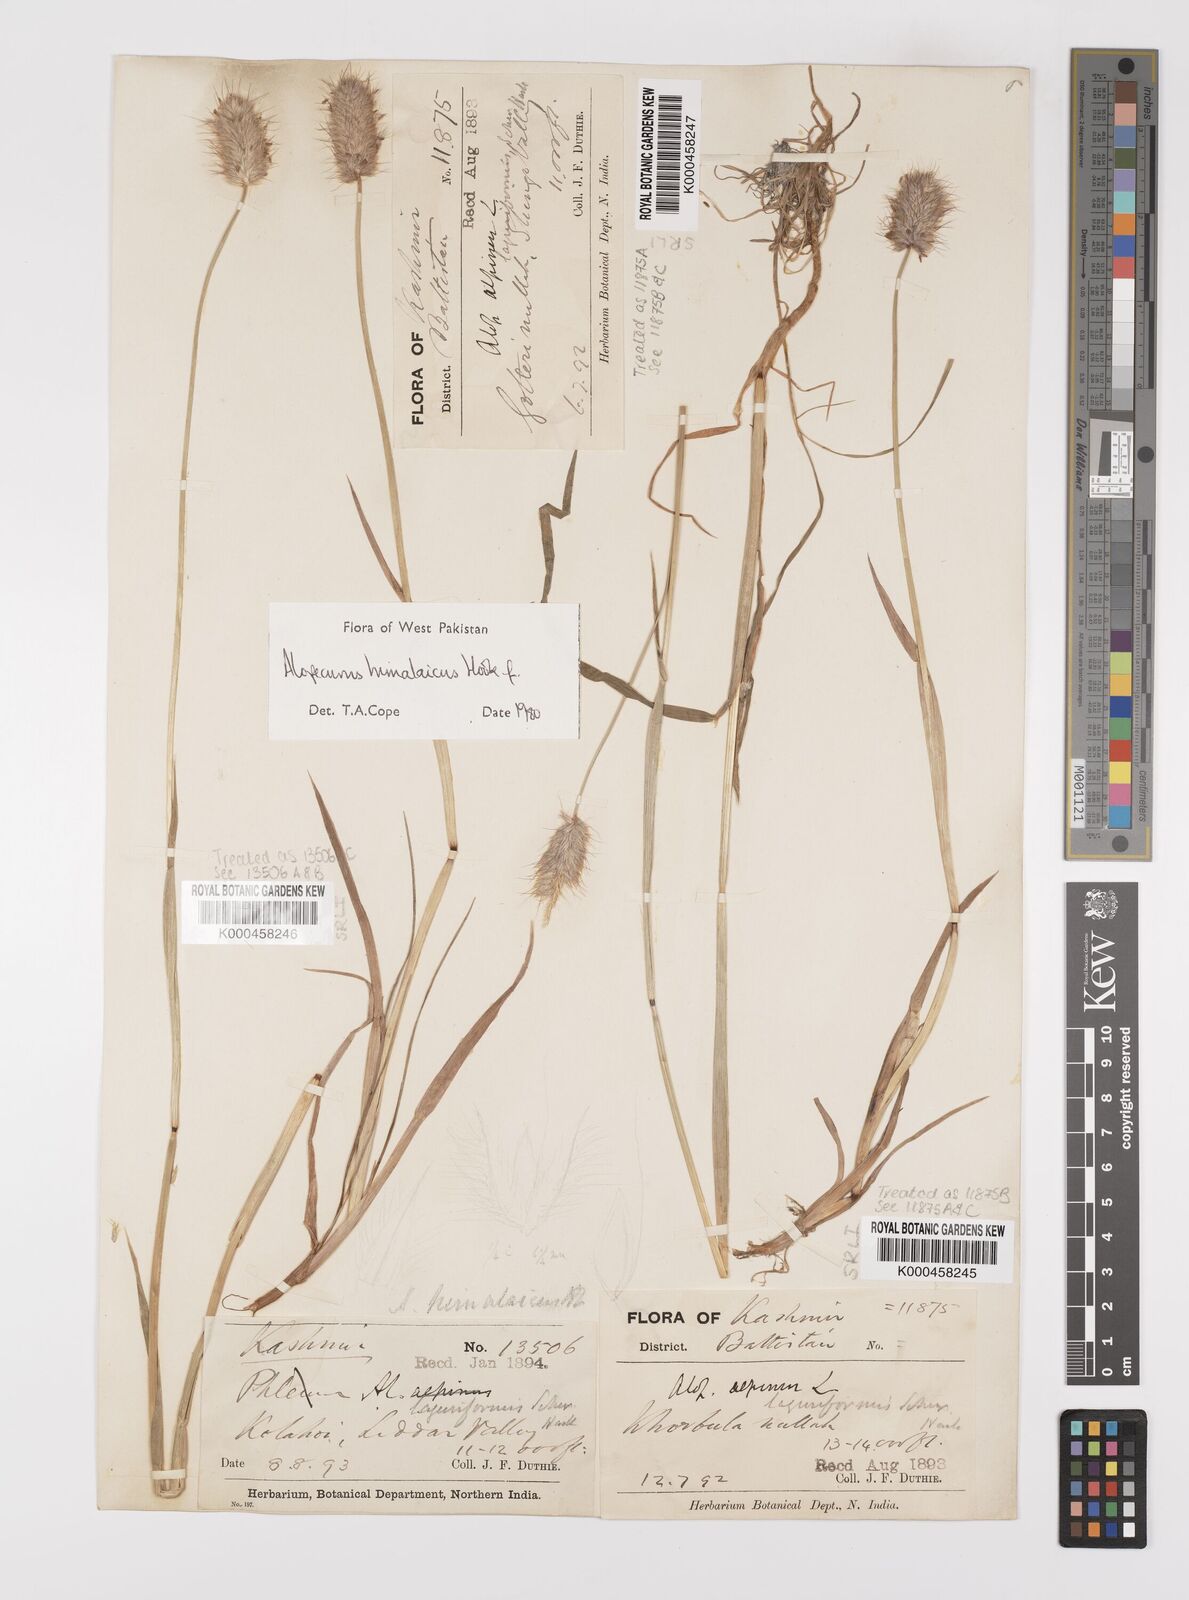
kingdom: Plantae
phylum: Tracheophyta
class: Liliopsida
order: Poales
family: Poaceae
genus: Alopecurus
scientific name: Alopecurus himalaicus
